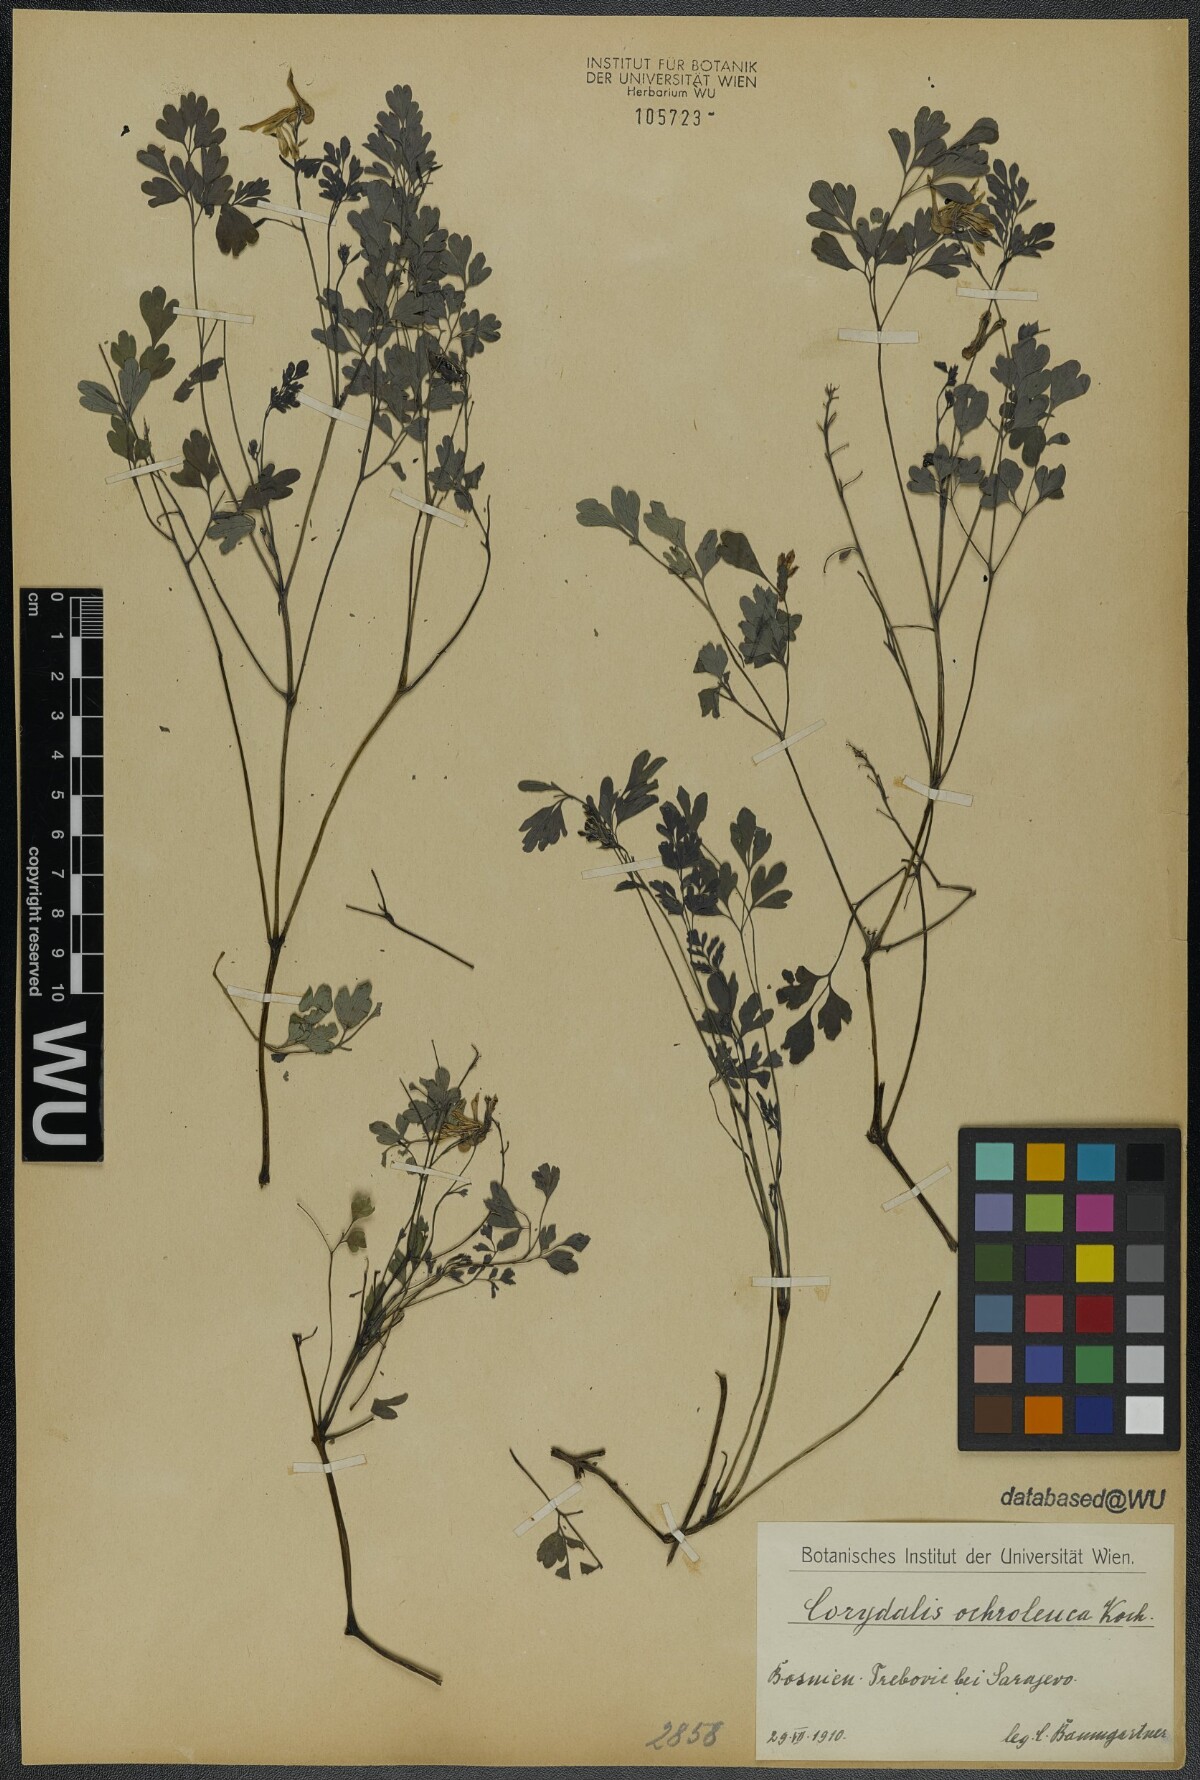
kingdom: Plantae
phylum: Tracheophyta
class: Magnoliopsida
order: Ranunculales
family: Papaveraceae
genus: Pseudofumaria
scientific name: Pseudofumaria alba
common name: Pale corydalis
